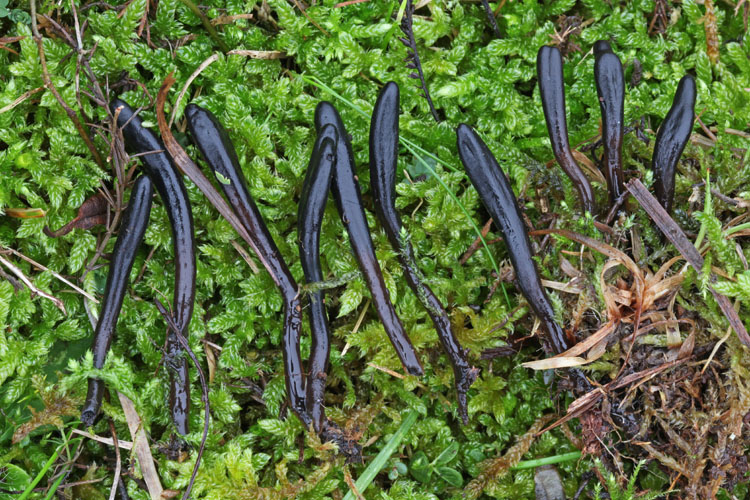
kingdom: Fungi
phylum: Ascomycota
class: Geoglossomycetes
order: Geoglossales
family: Geoglossaceae
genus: Glutinoglossum
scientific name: Glutinoglossum glutinosum
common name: slimet jordtunge
